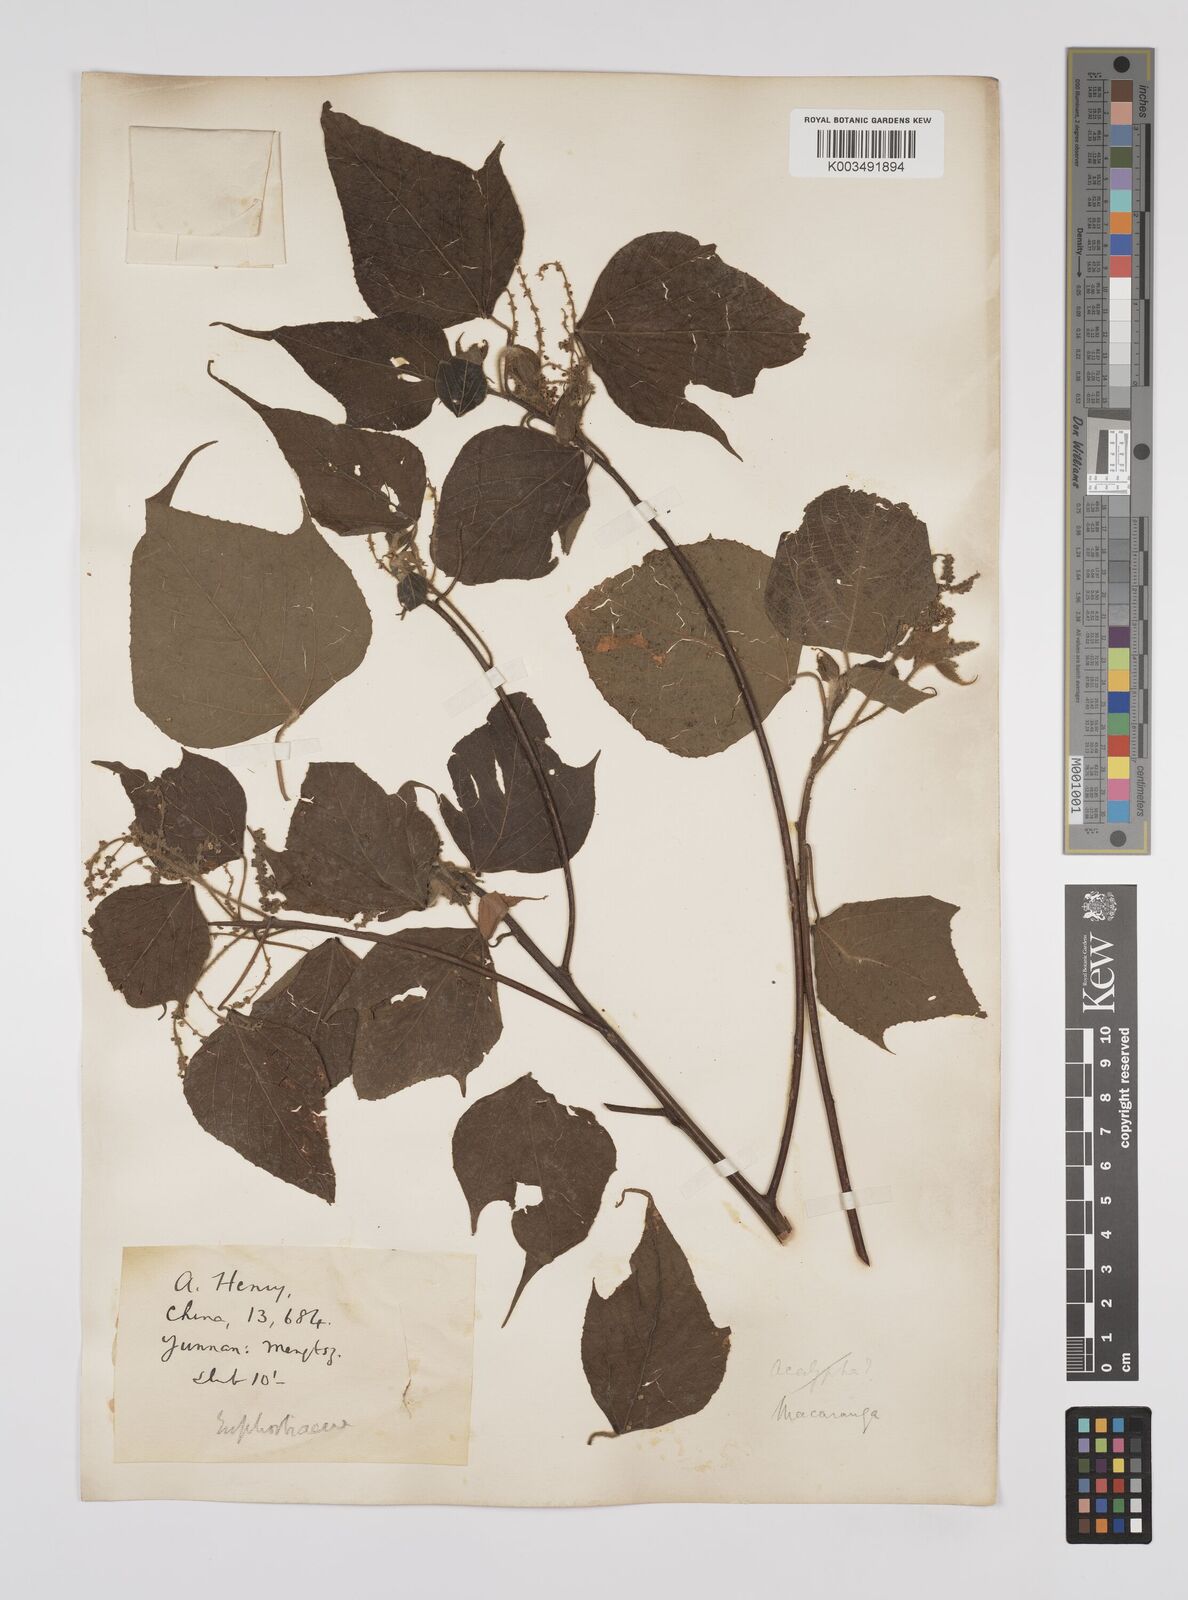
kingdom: Plantae
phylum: Tracheophyta
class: Magnoliopsida
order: Malpighiales
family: Euphorbiaceae
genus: Macaranga
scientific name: Macaranga kurzii
